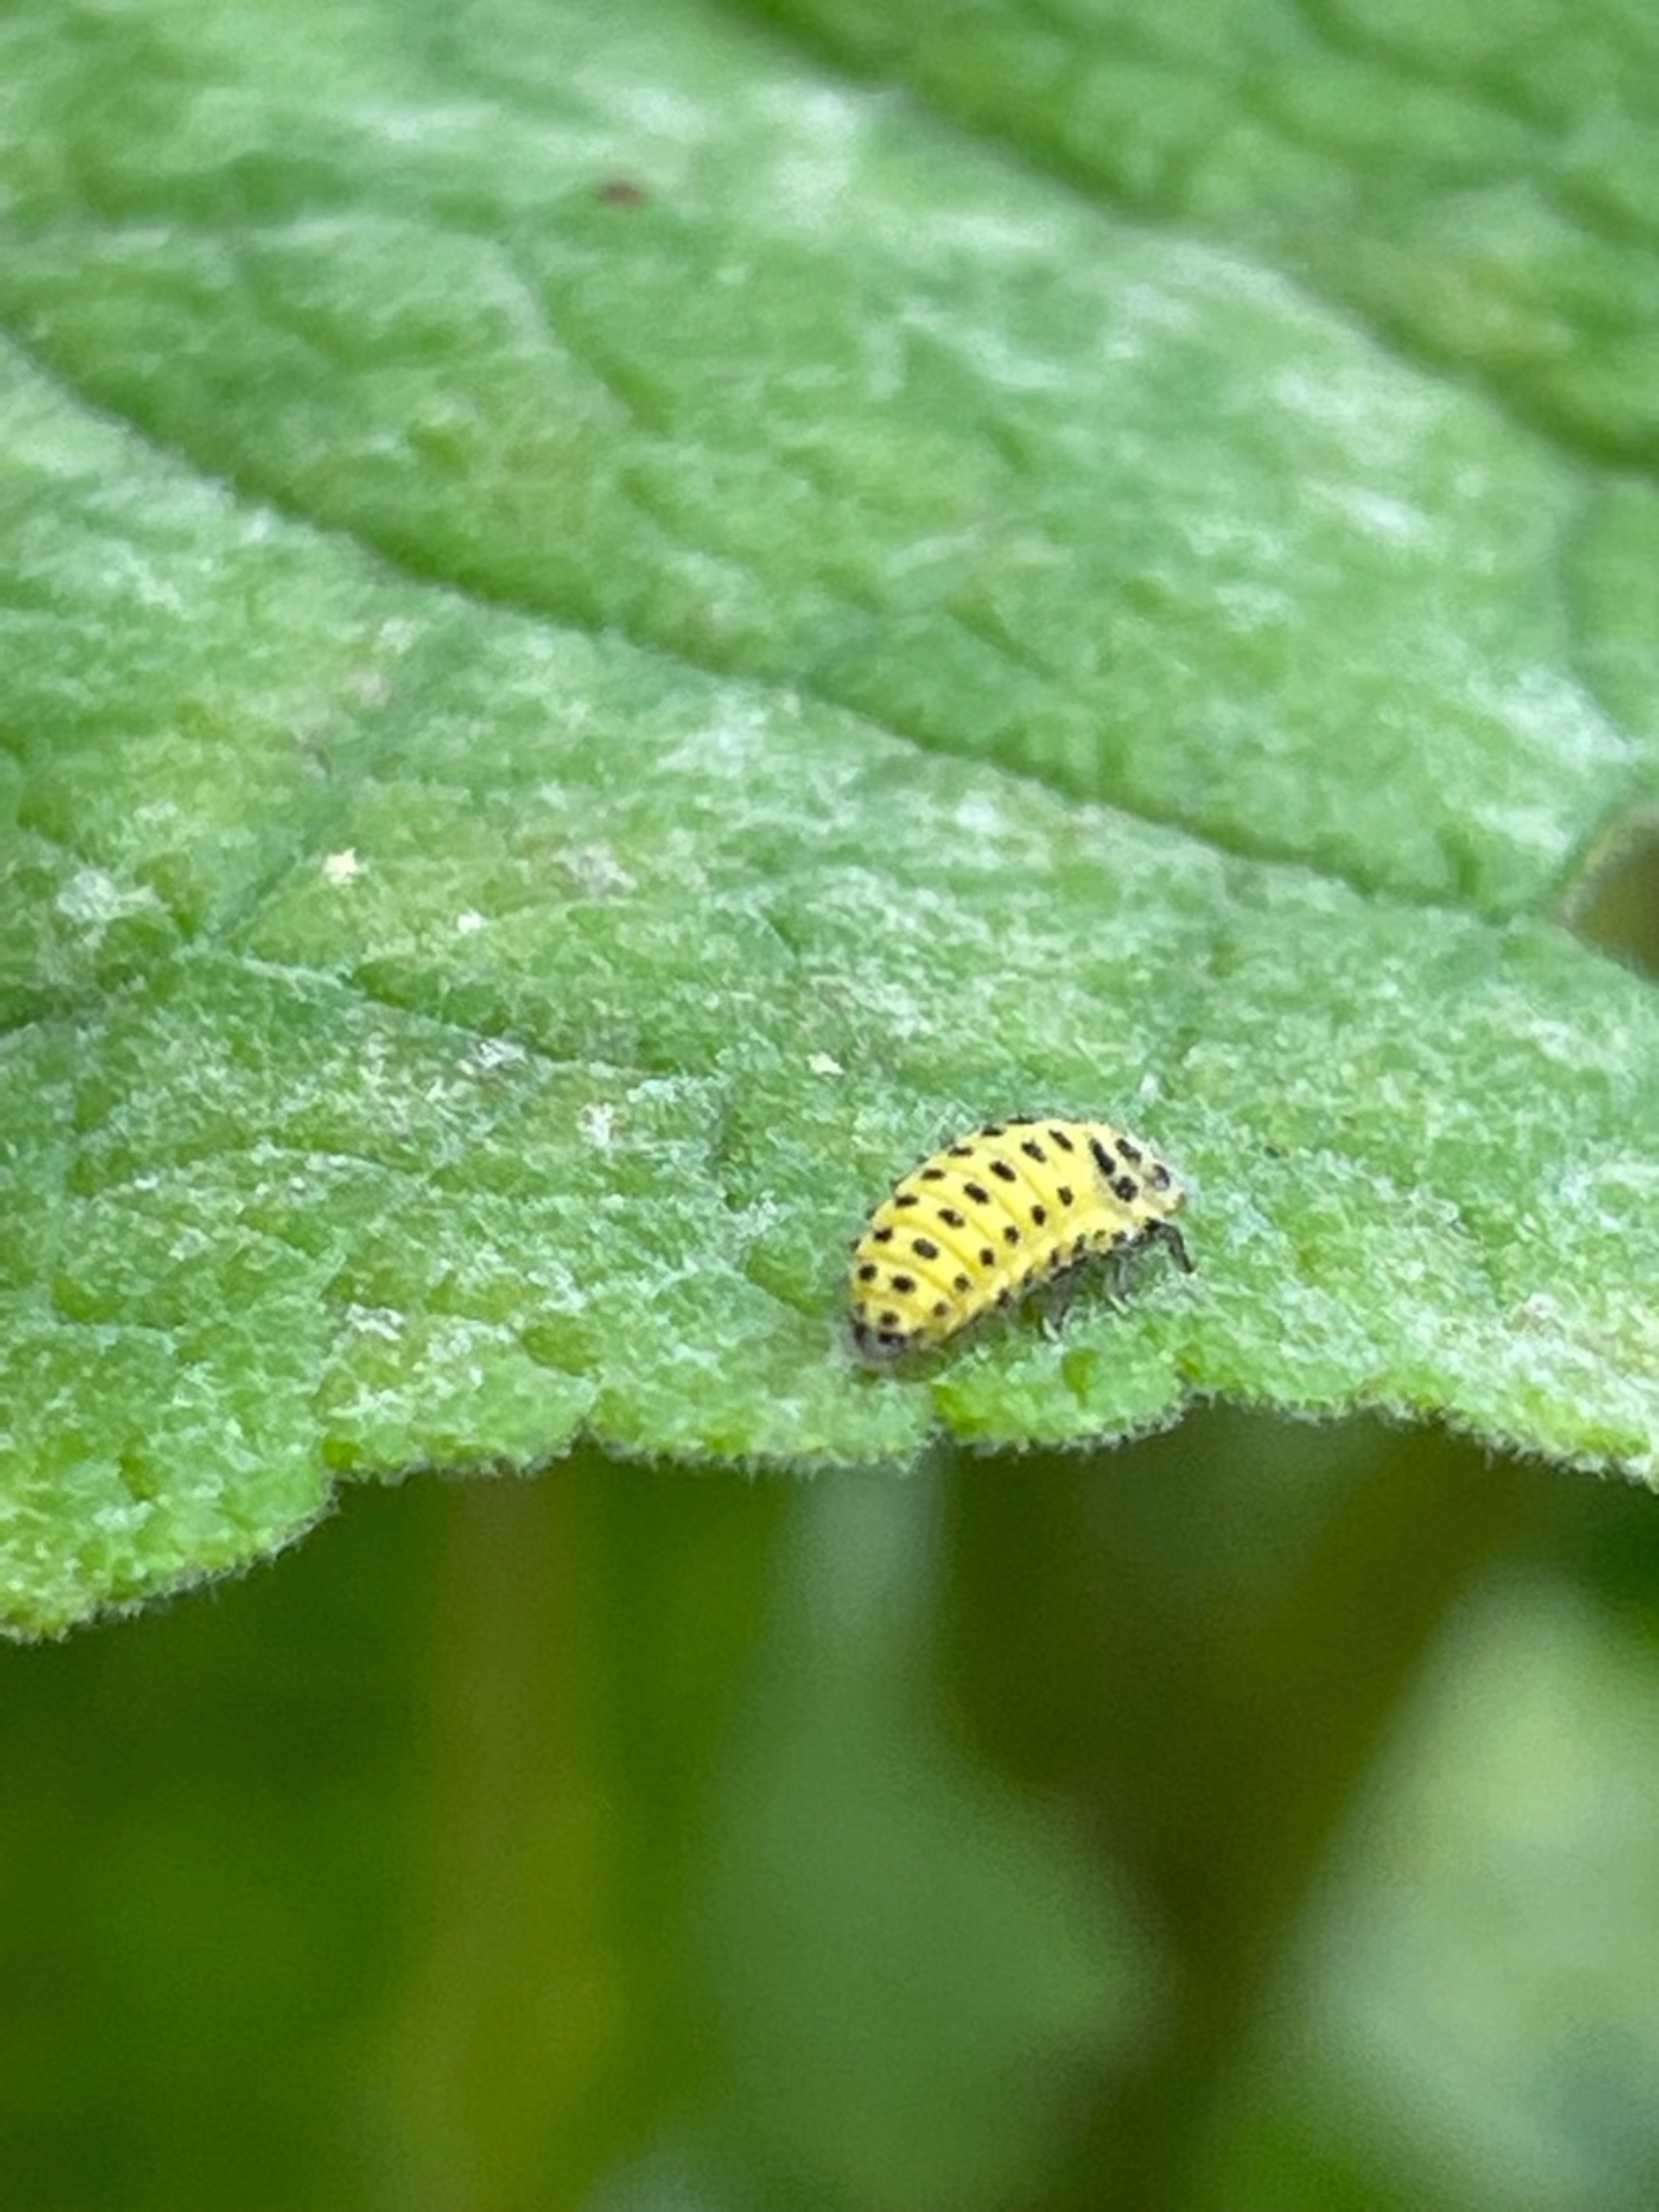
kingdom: Animalia
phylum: Arthropoda
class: Insecta
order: Coleoptera
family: Coccinellidae
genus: Psyllobora
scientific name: Psyllobora vigintiduopunctata
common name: Toogtyveplettet mariehøne
